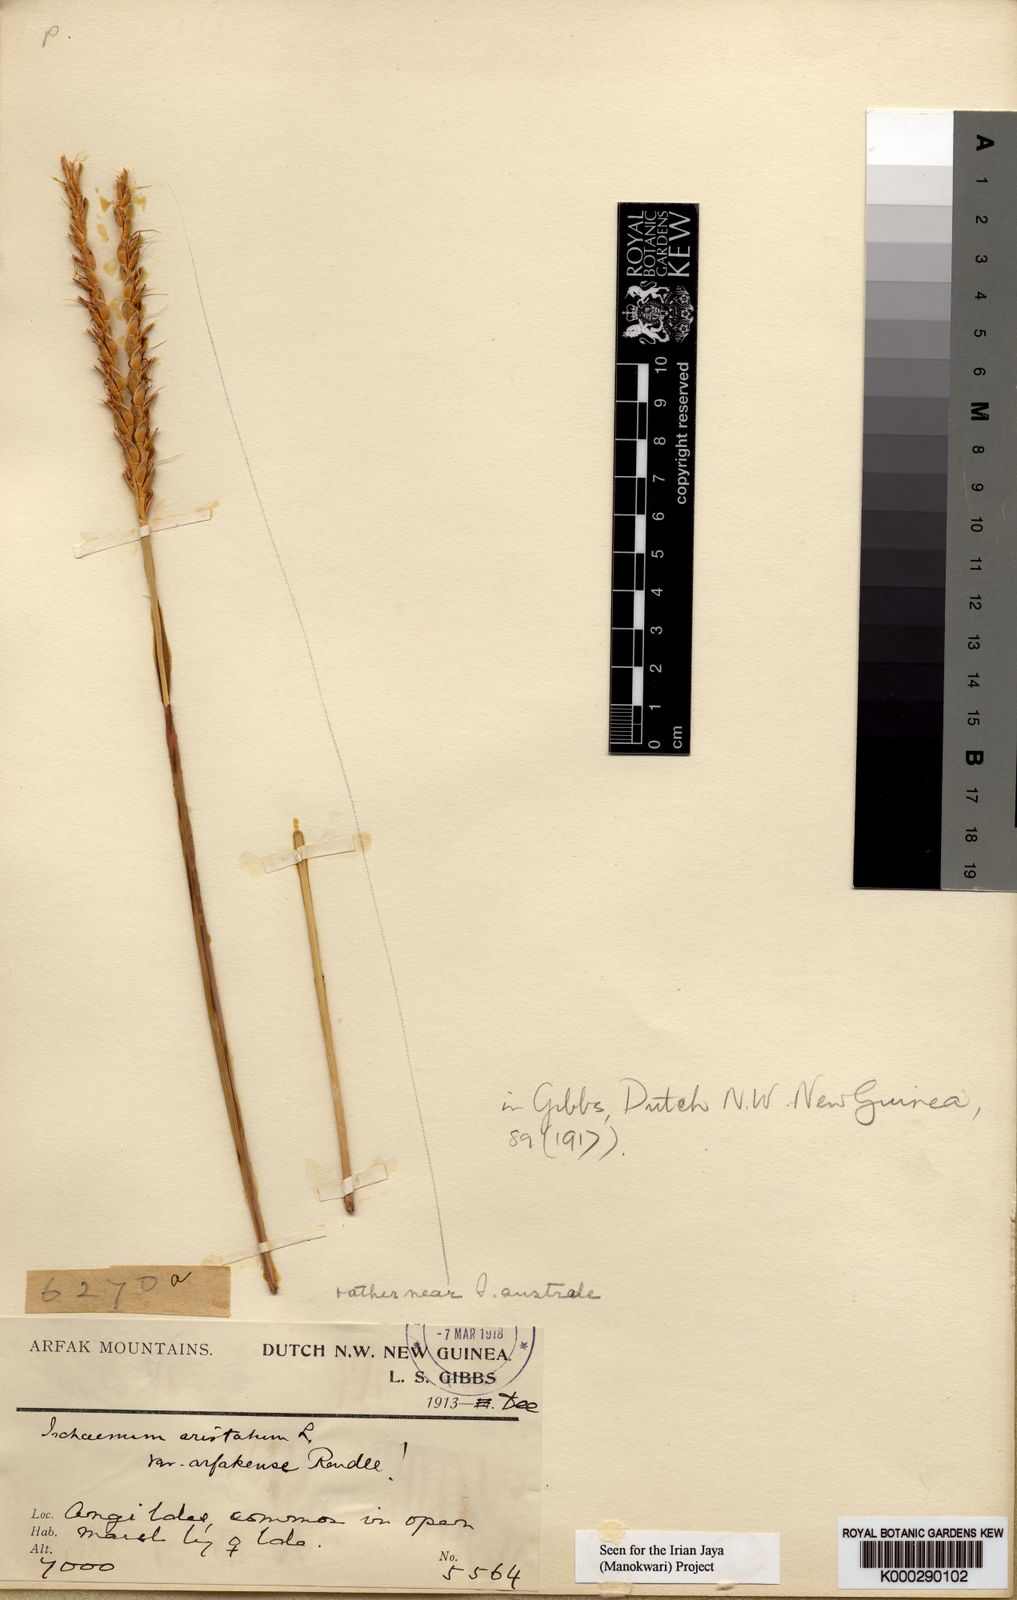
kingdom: Plantae
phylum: Tracheophyta
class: Liliopsida
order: Poales
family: Poaceae
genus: Ischaemum
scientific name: Ischaemum barbatum
